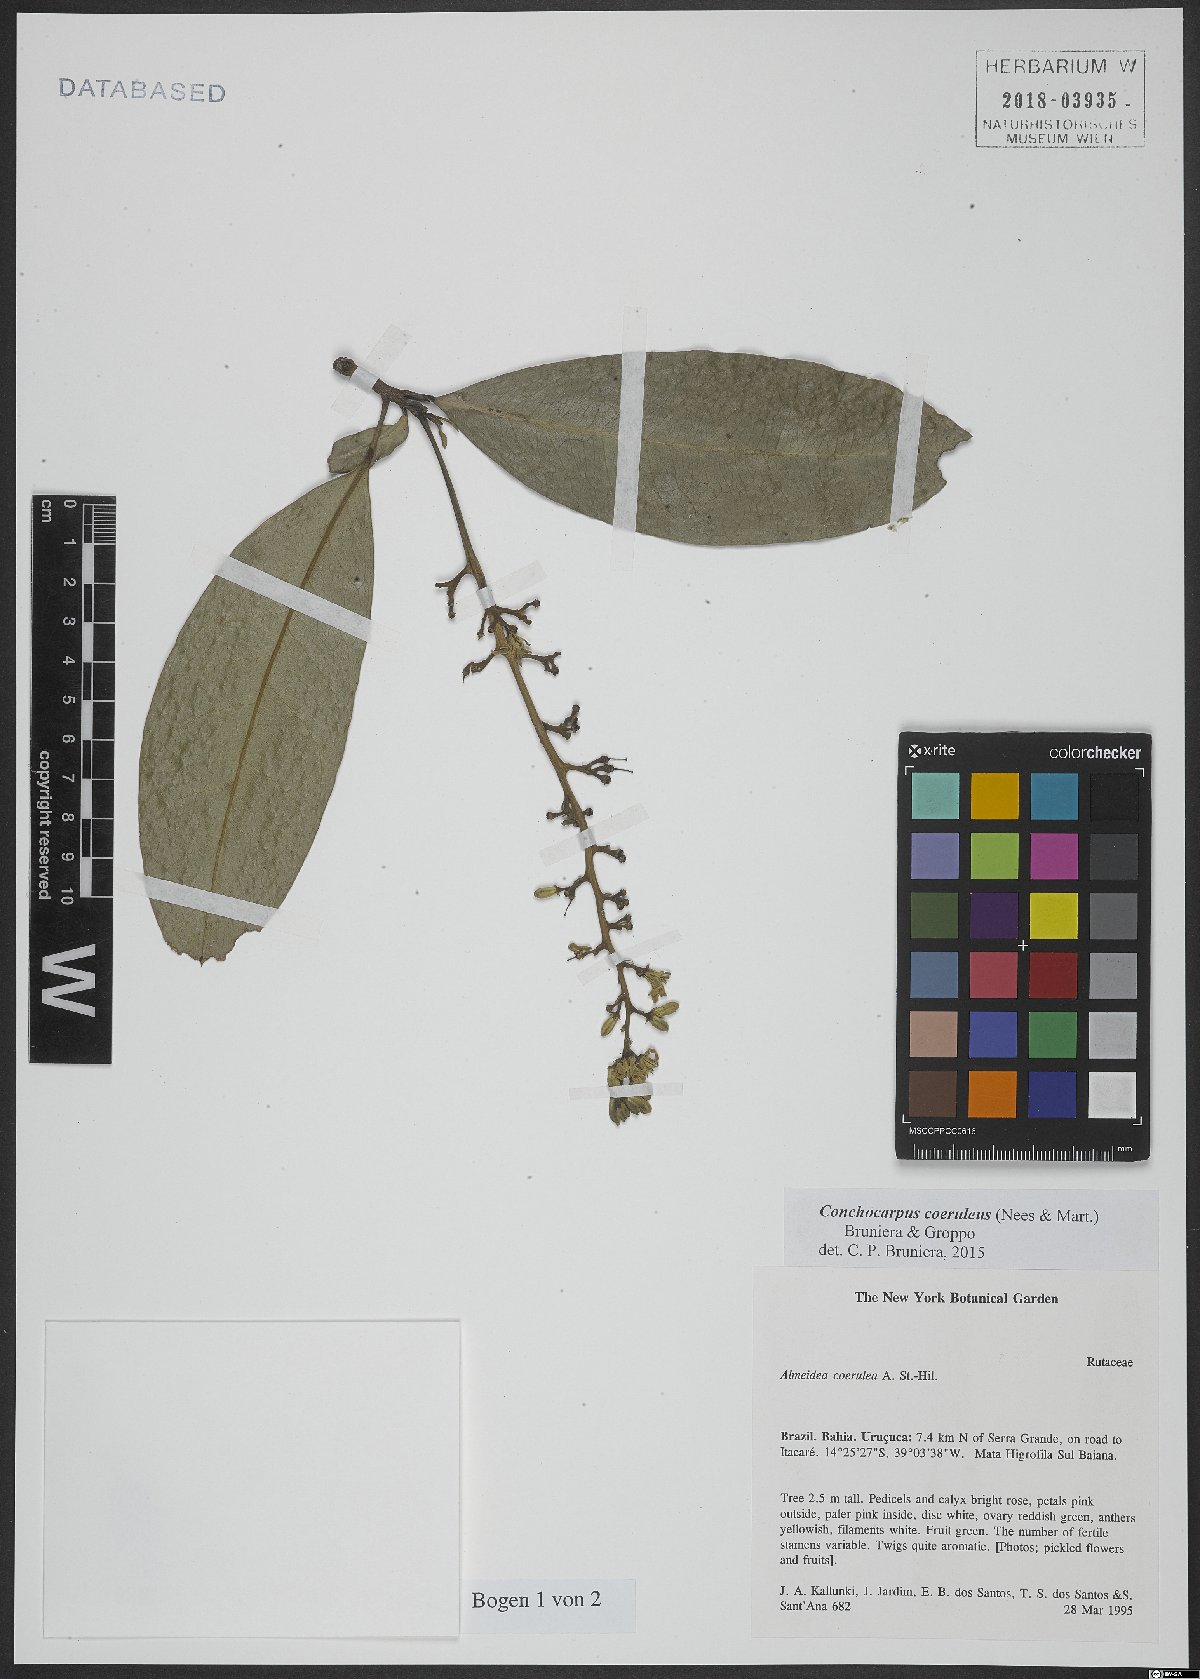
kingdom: Plantae
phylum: Tracheophyta
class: Magnoliopsida
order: Sapindales
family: Rutaceae
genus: Conchocarpus
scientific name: Conchocarpus coeruleus
